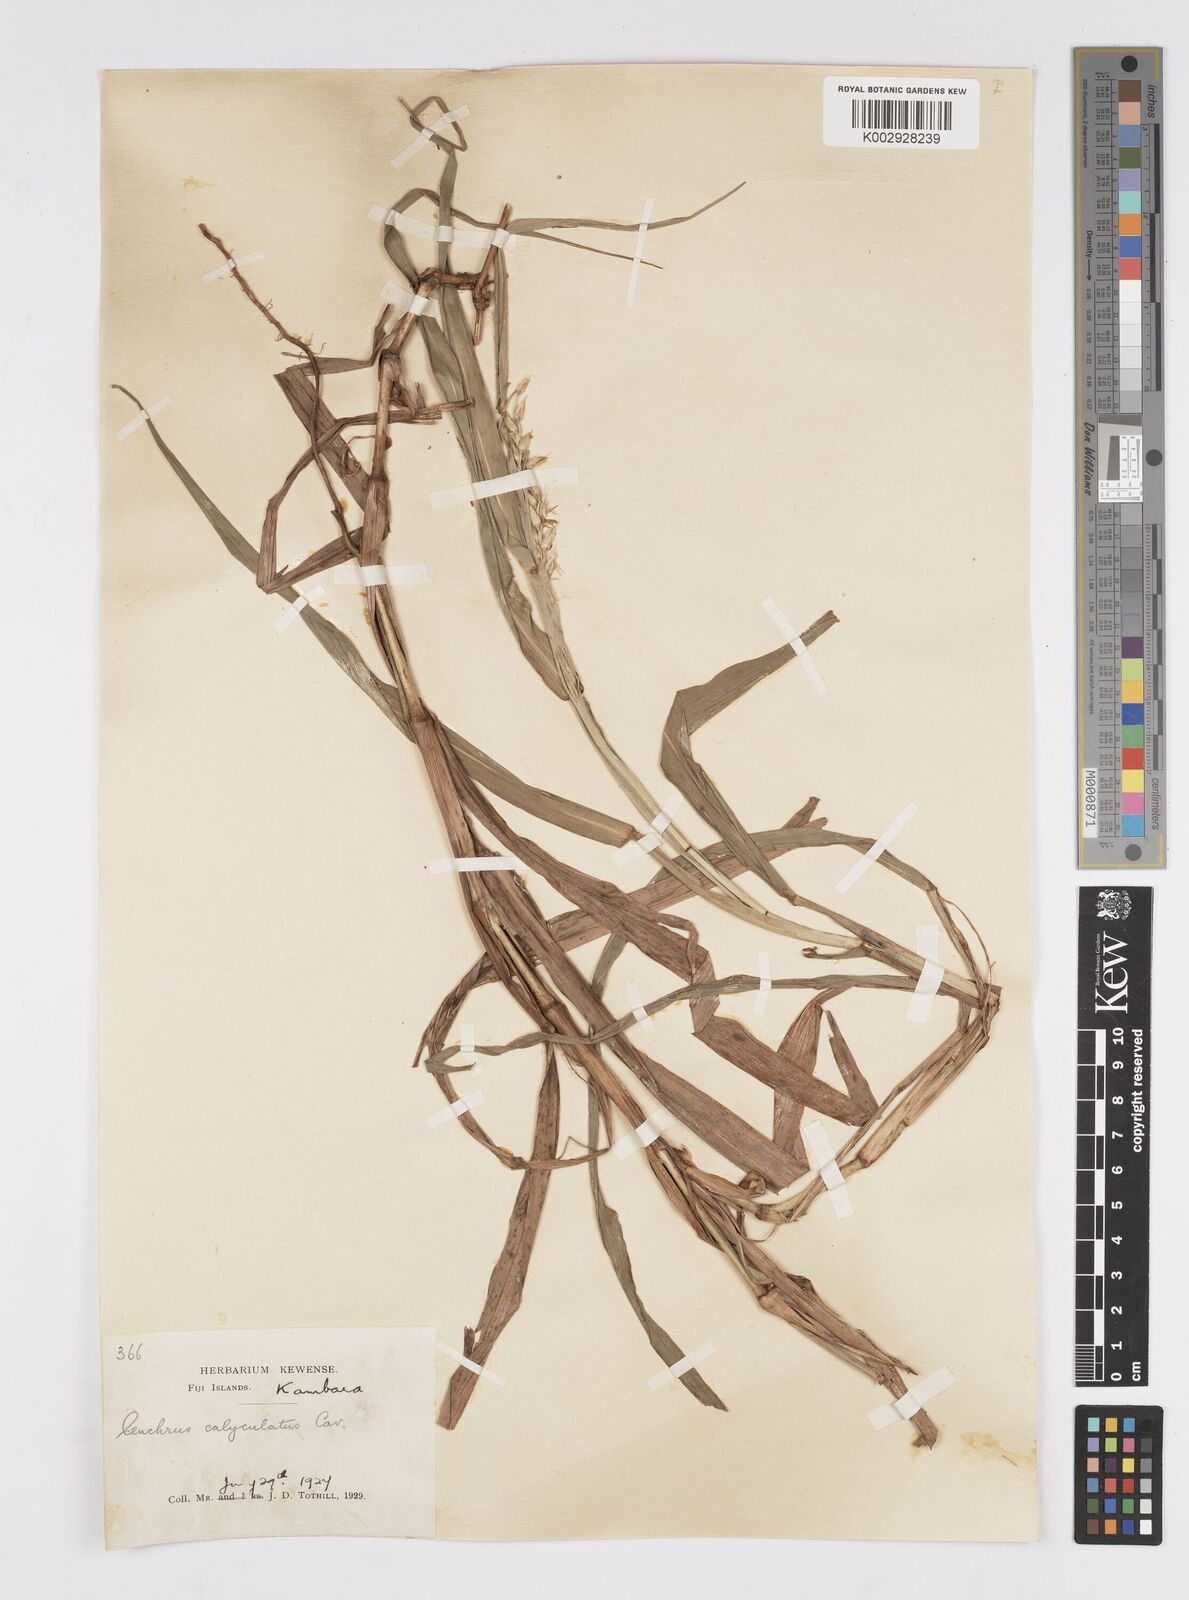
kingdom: Plantae
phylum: Tracheophyta
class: Liliopsida
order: Poales
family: Poaceae
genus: Cenchrus
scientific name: Cenchrus caliculatus
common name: Large bur grass
